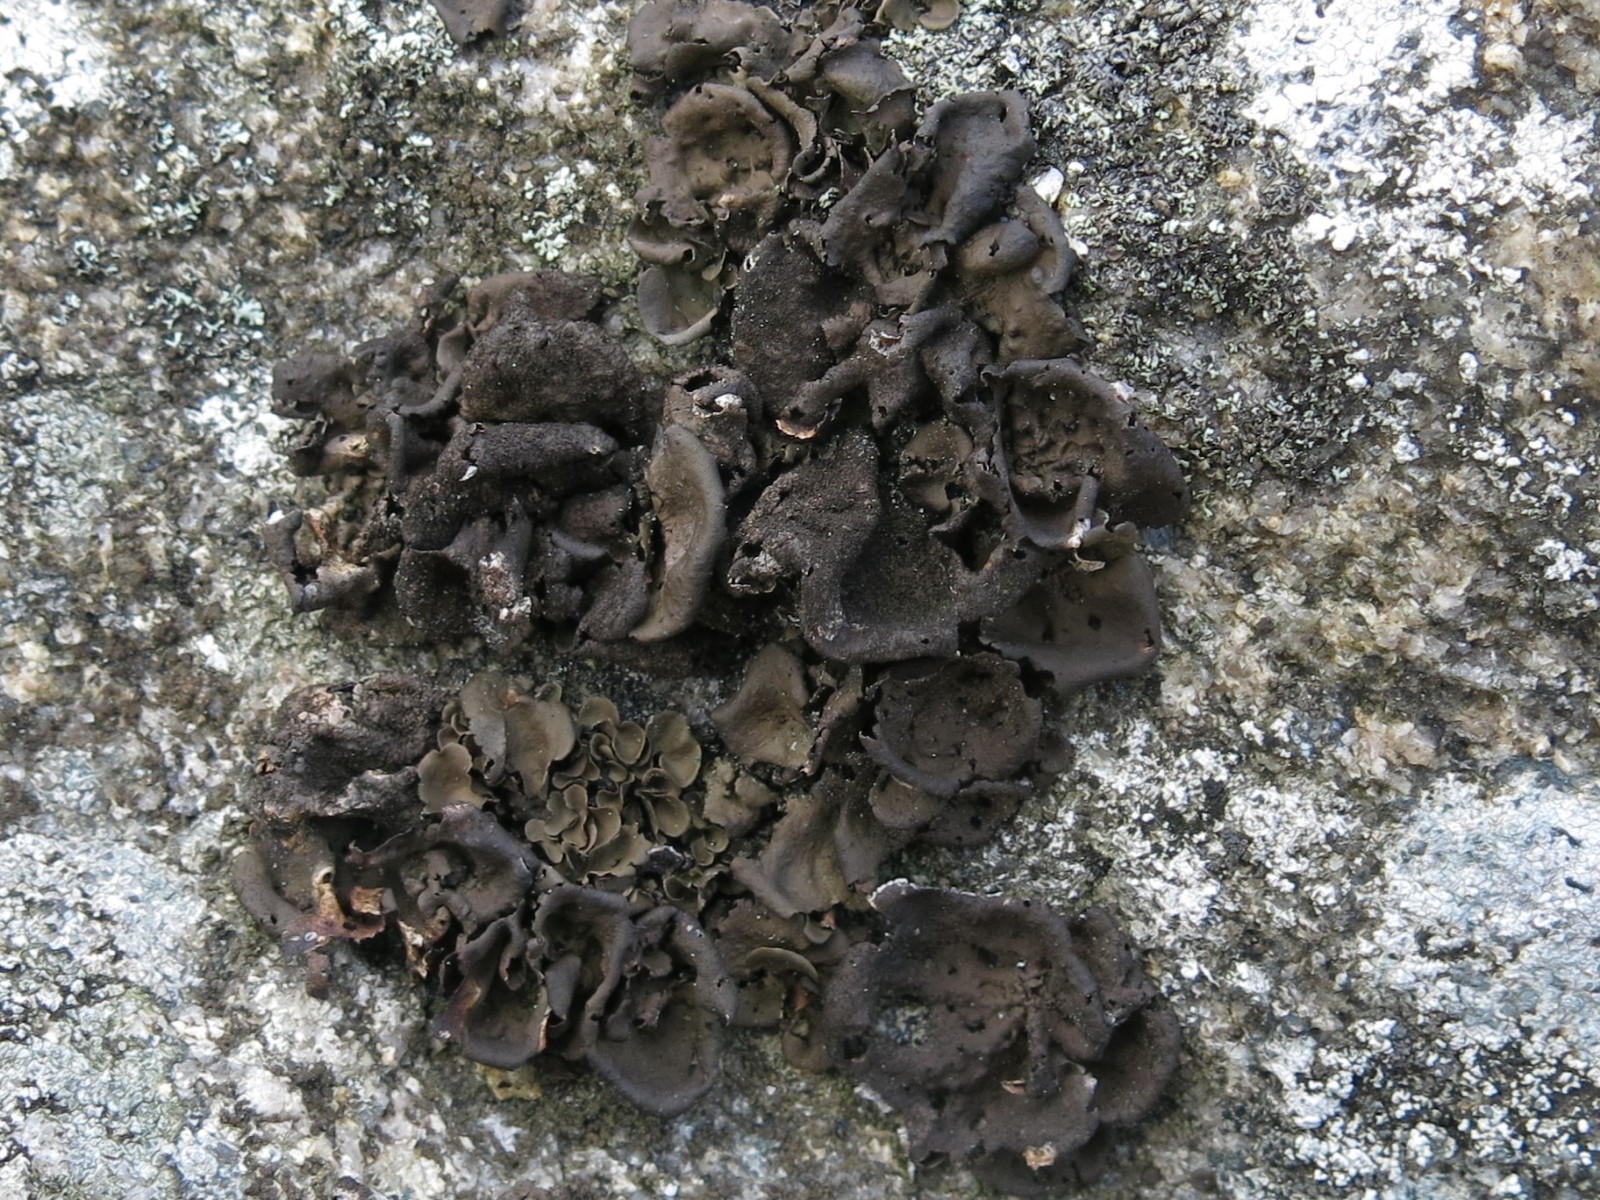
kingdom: Fungi
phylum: Ascomycota
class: Lecanoromycetes
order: Umbilicariales
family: Umbilicariaceae
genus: Umbilicaria
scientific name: Umbilicaria deusta
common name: kliddet navlelav
